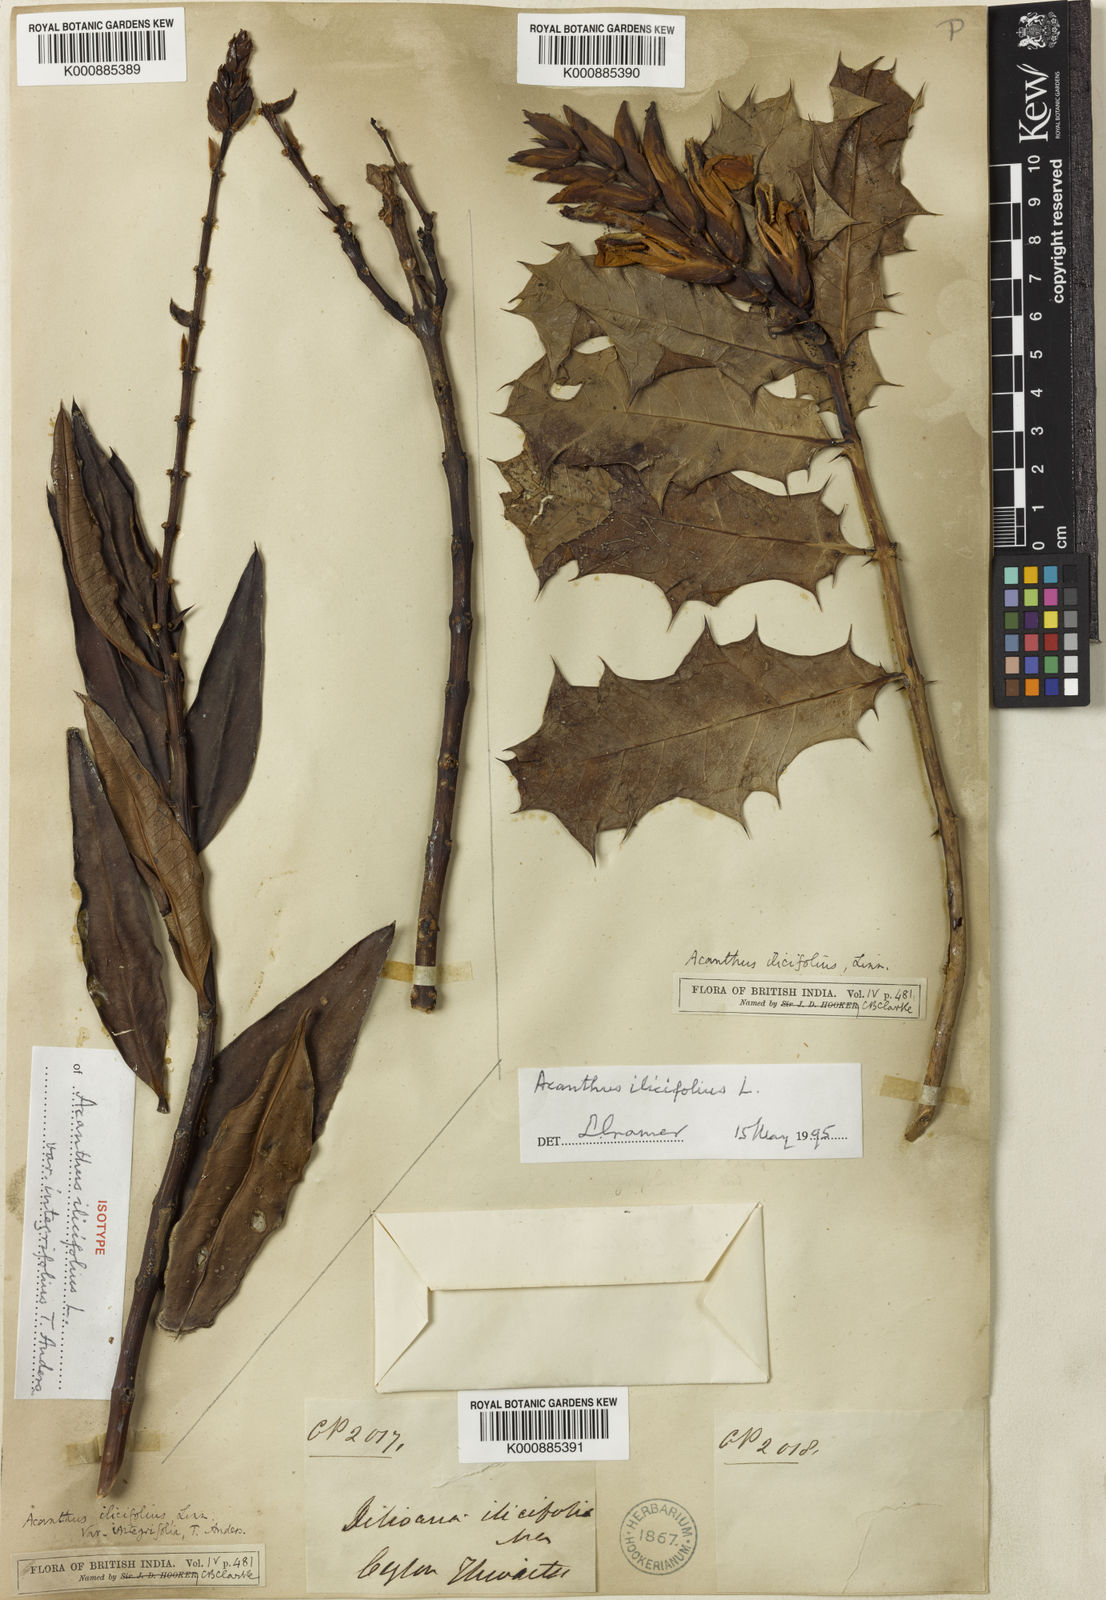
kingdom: Plantae
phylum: Tracheophyta
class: Magnoliopsida
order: Lamiales
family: Acanthaceae
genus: Acanthus
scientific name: Acanthus ilicifolius
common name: Holy mangrove
